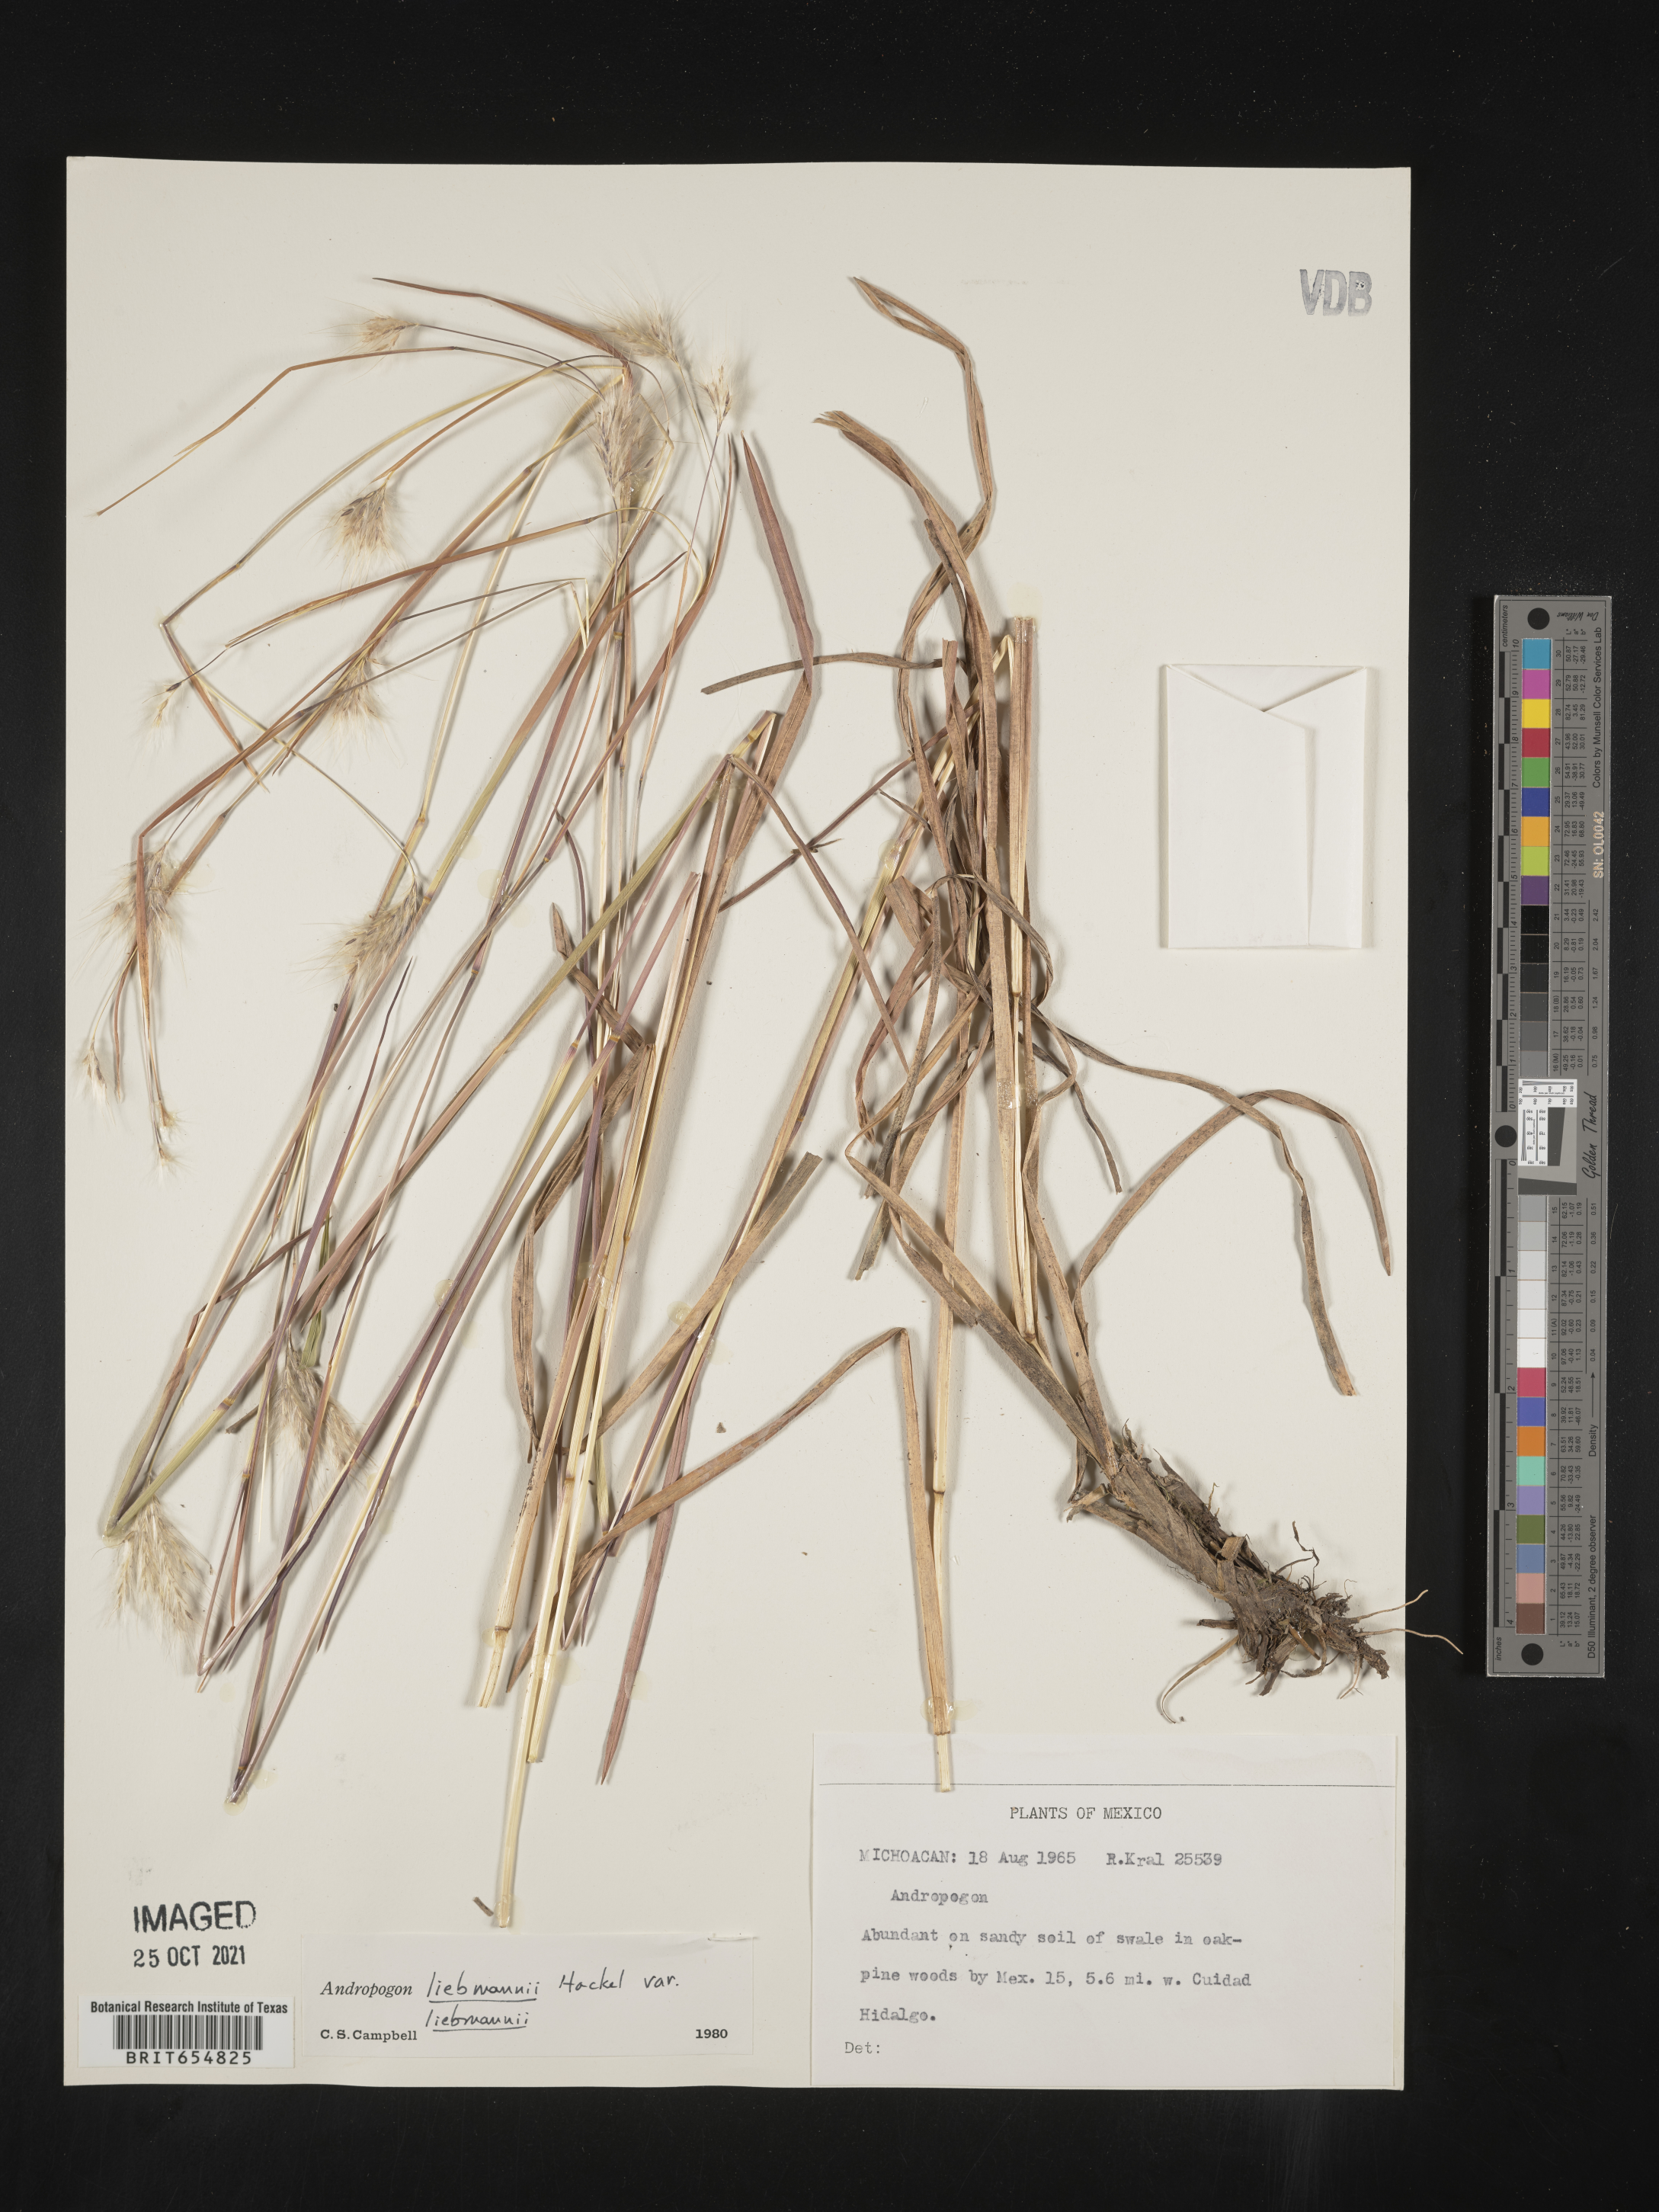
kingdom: Plantae
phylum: Tracheophyta
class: Liliopsida
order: Poales
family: Poaceae
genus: Andropogon
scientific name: Andropogon
